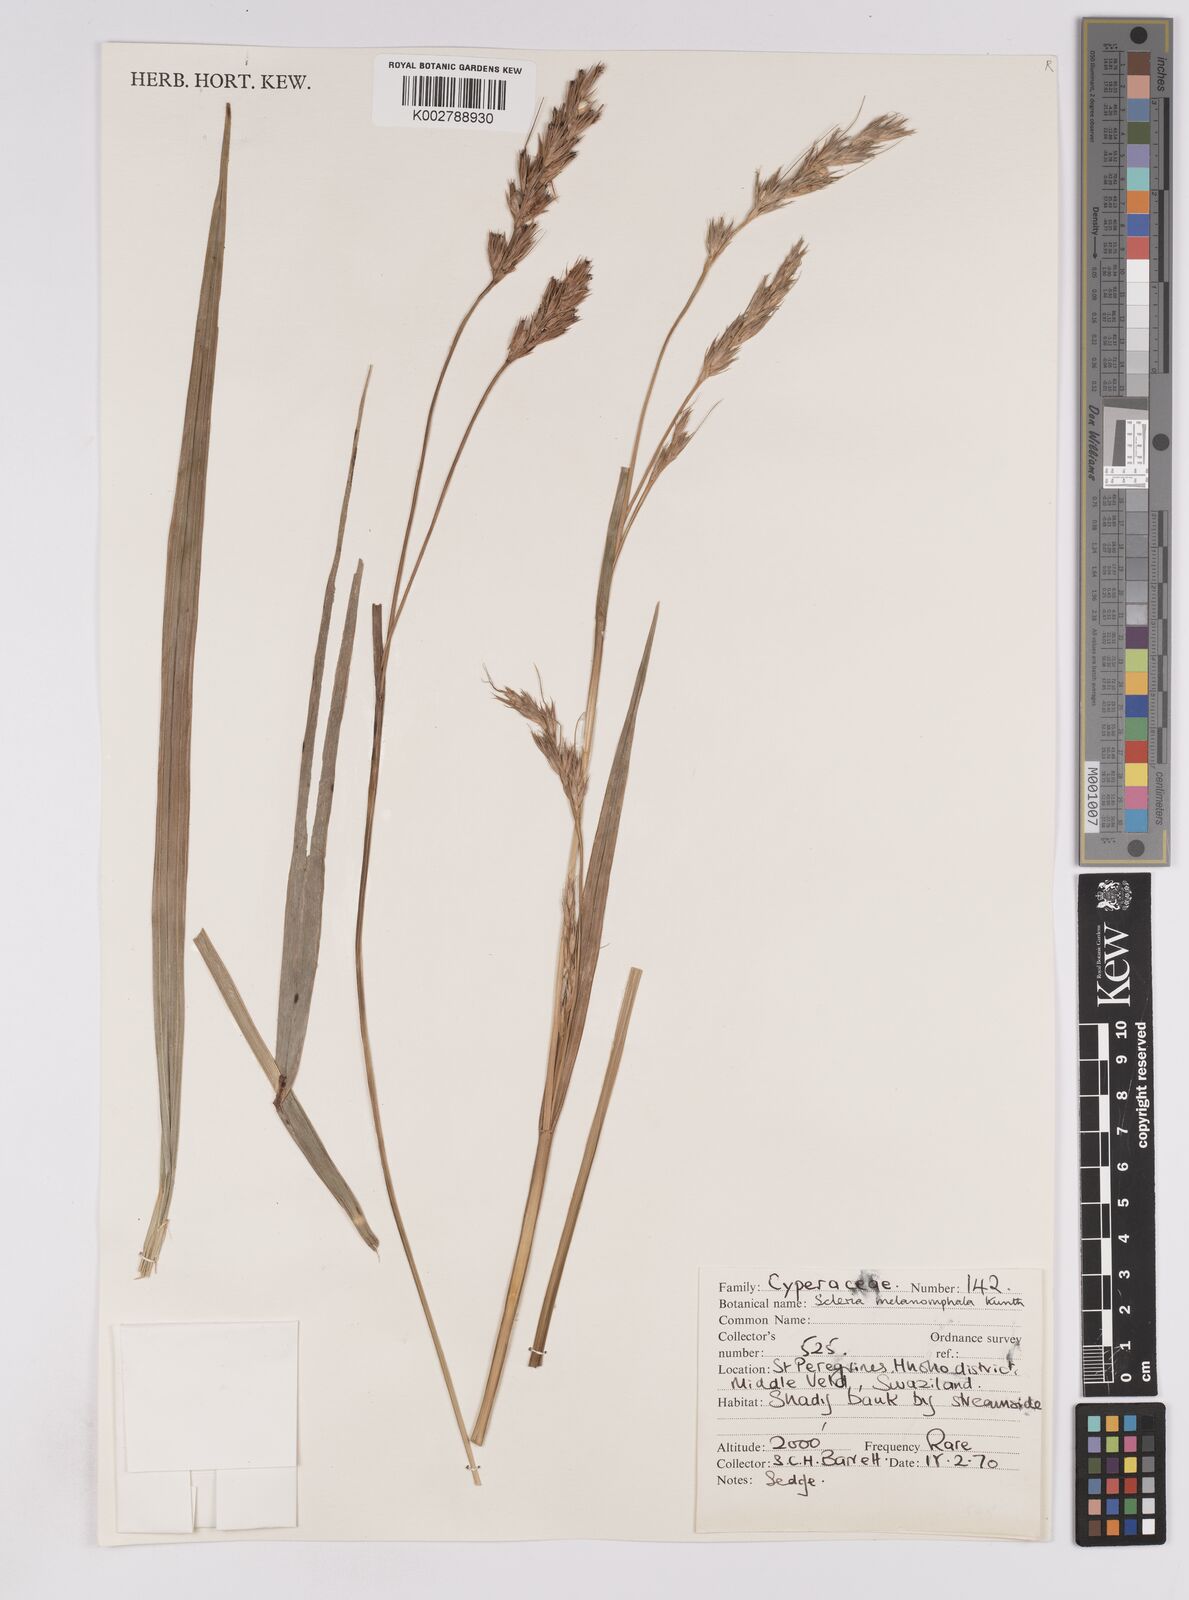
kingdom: Plantae
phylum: Tracheophyta
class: Liliopsida
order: Poales
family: Cyperaceae
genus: Scleria
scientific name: Scleria melanomphala
